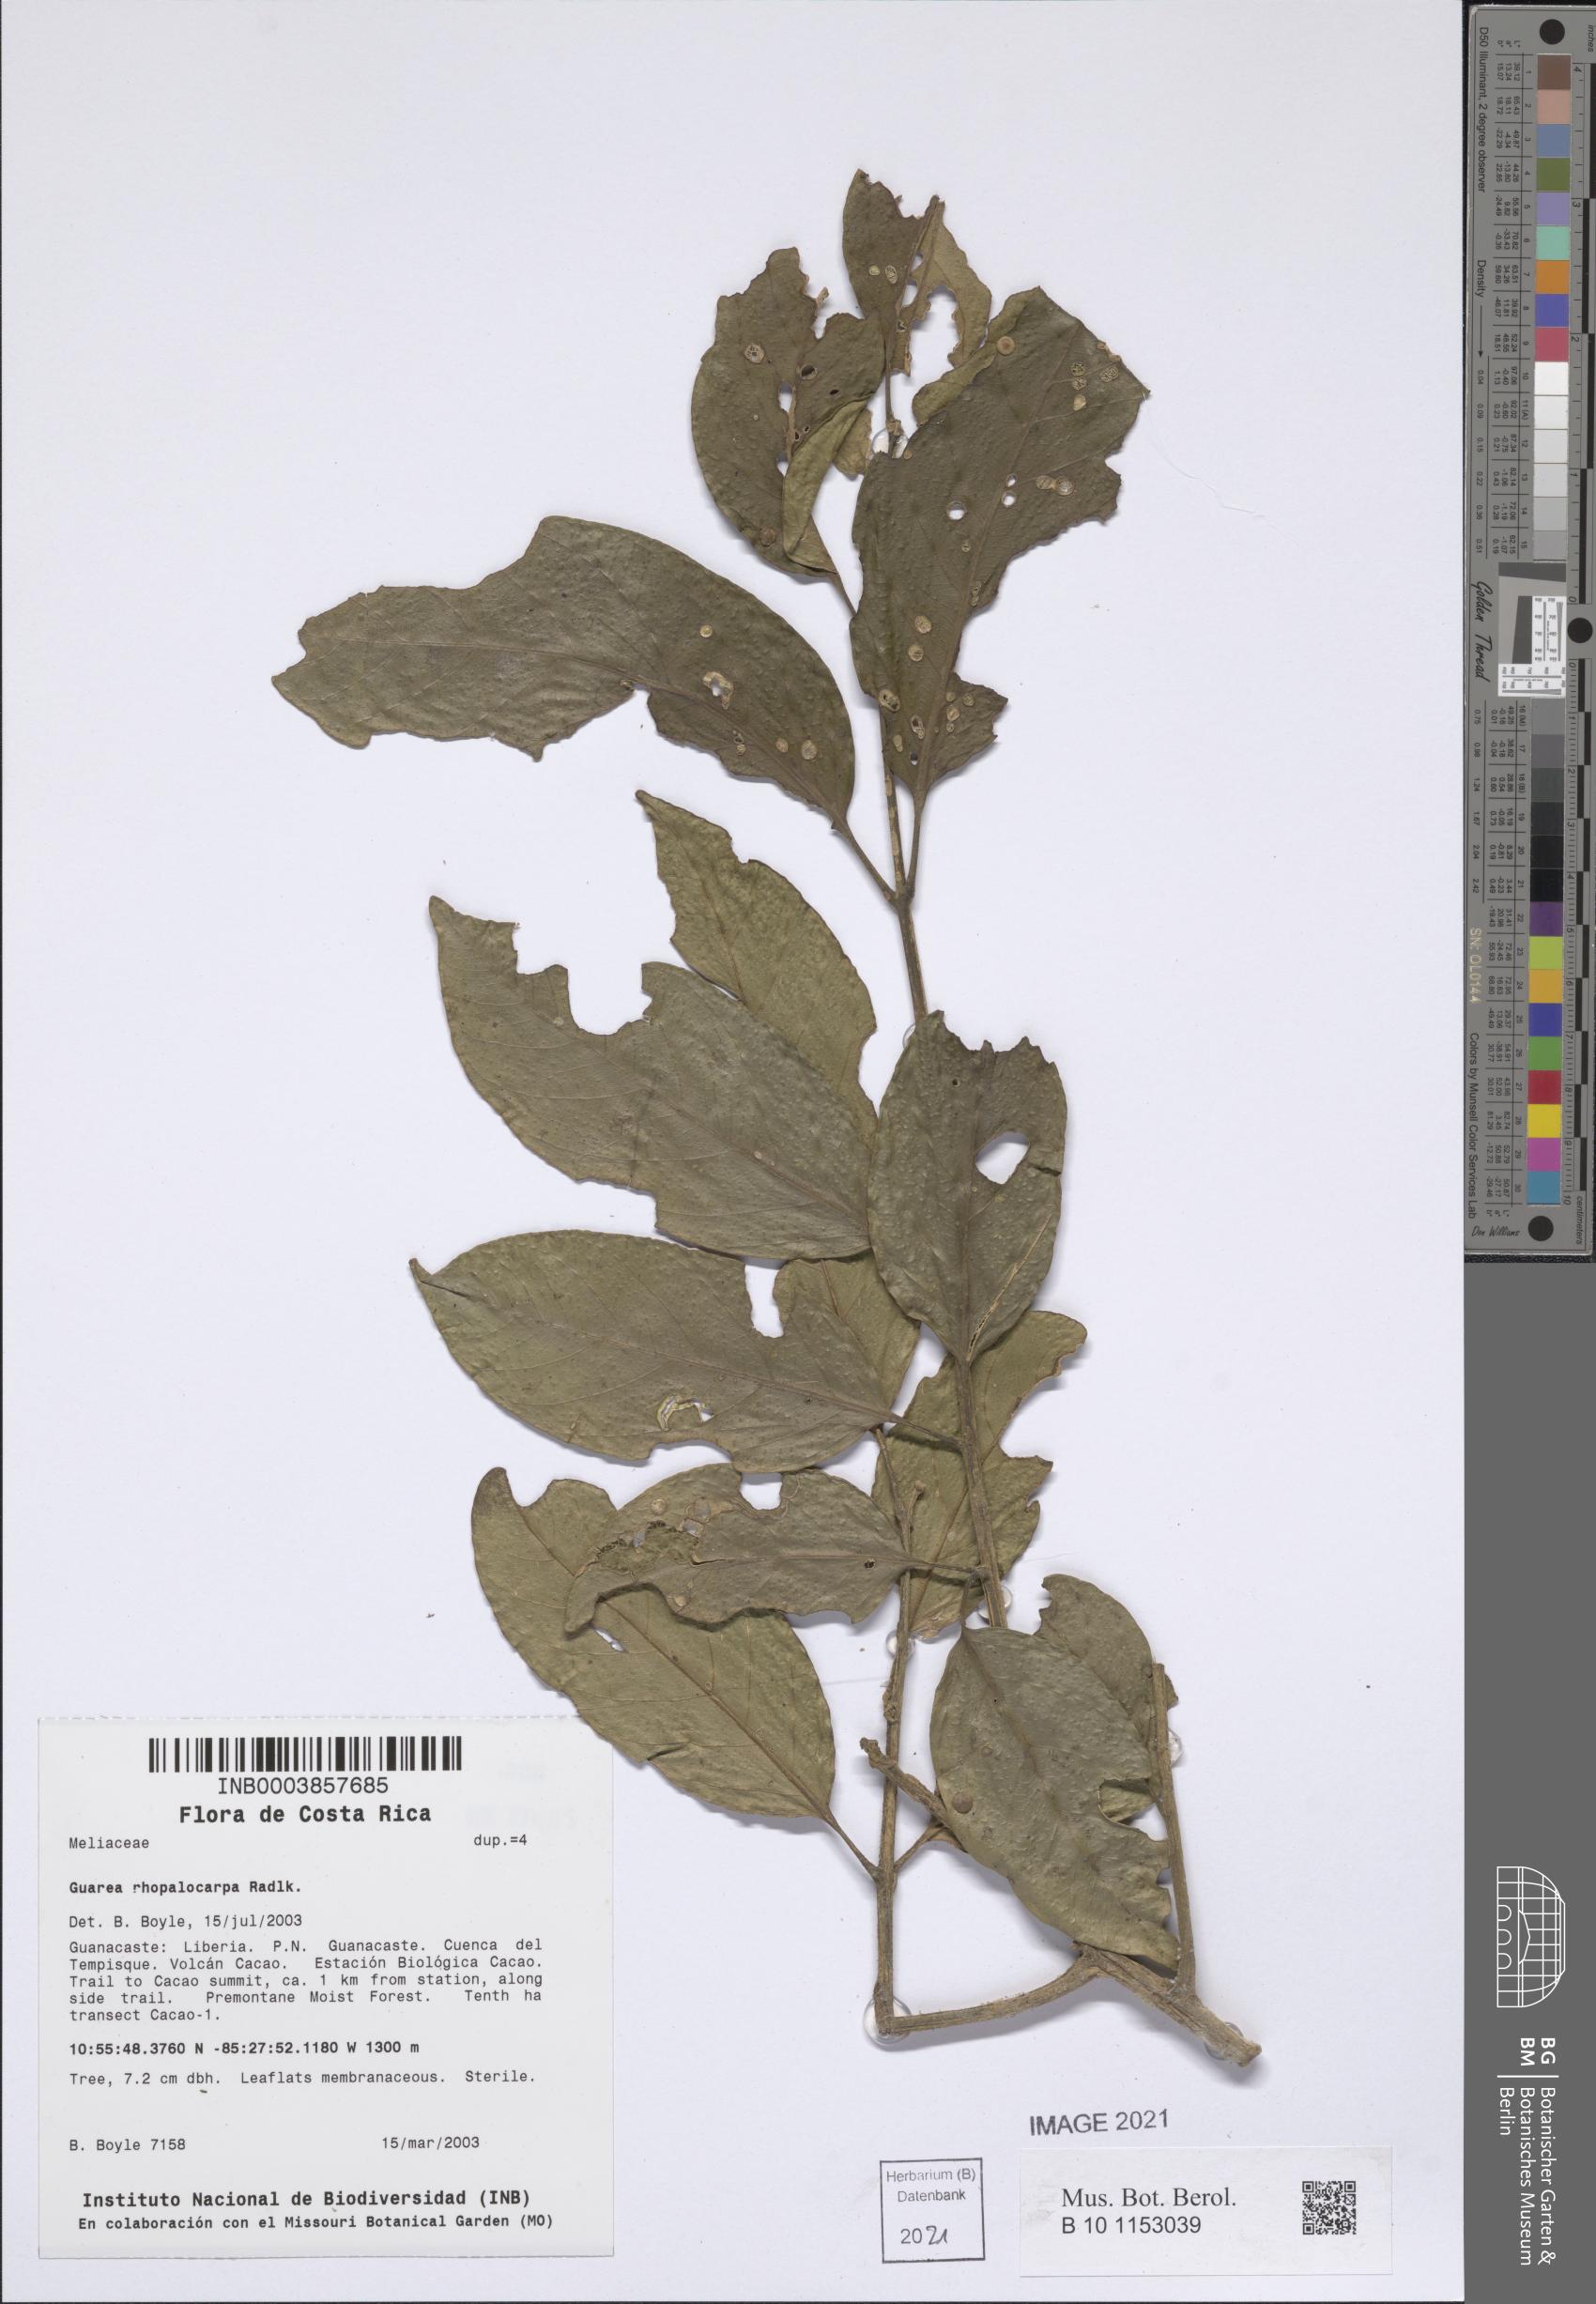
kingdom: Plantae
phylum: Tracheophyta
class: Magnoliopsida
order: Sapindales
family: Meliaceae
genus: Guarea
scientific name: Guarea rhopalocarpa
